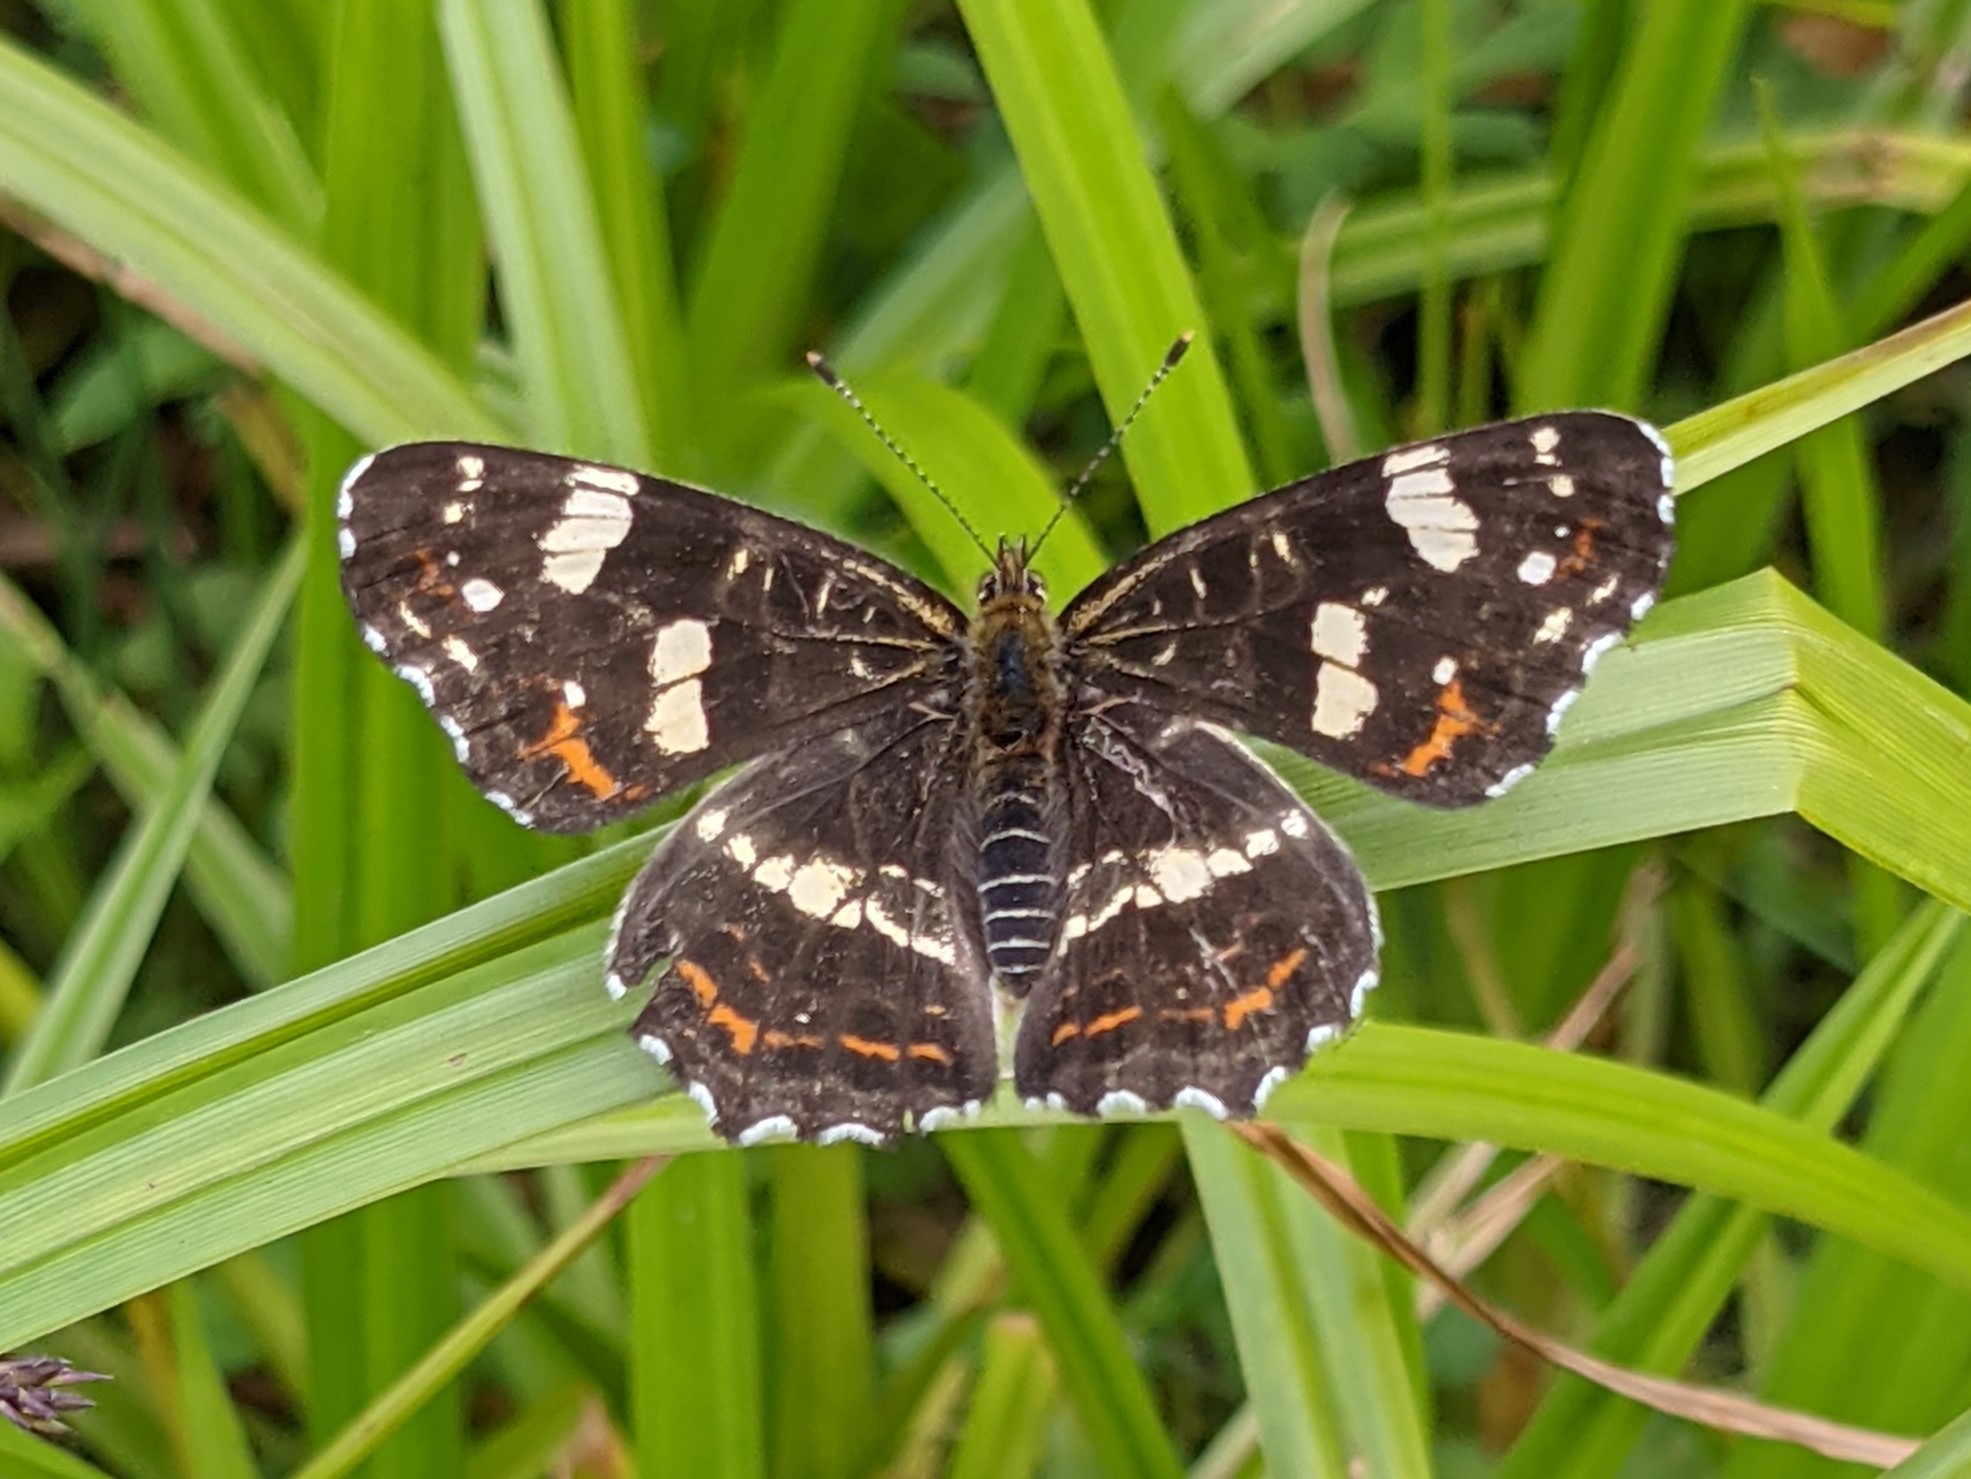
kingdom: Animalia
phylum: Arthropoda
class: Insecta
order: Lepidoptera
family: Nymphalidae
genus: Araschnia
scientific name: Araschnia levana
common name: Nældesommerfugl
